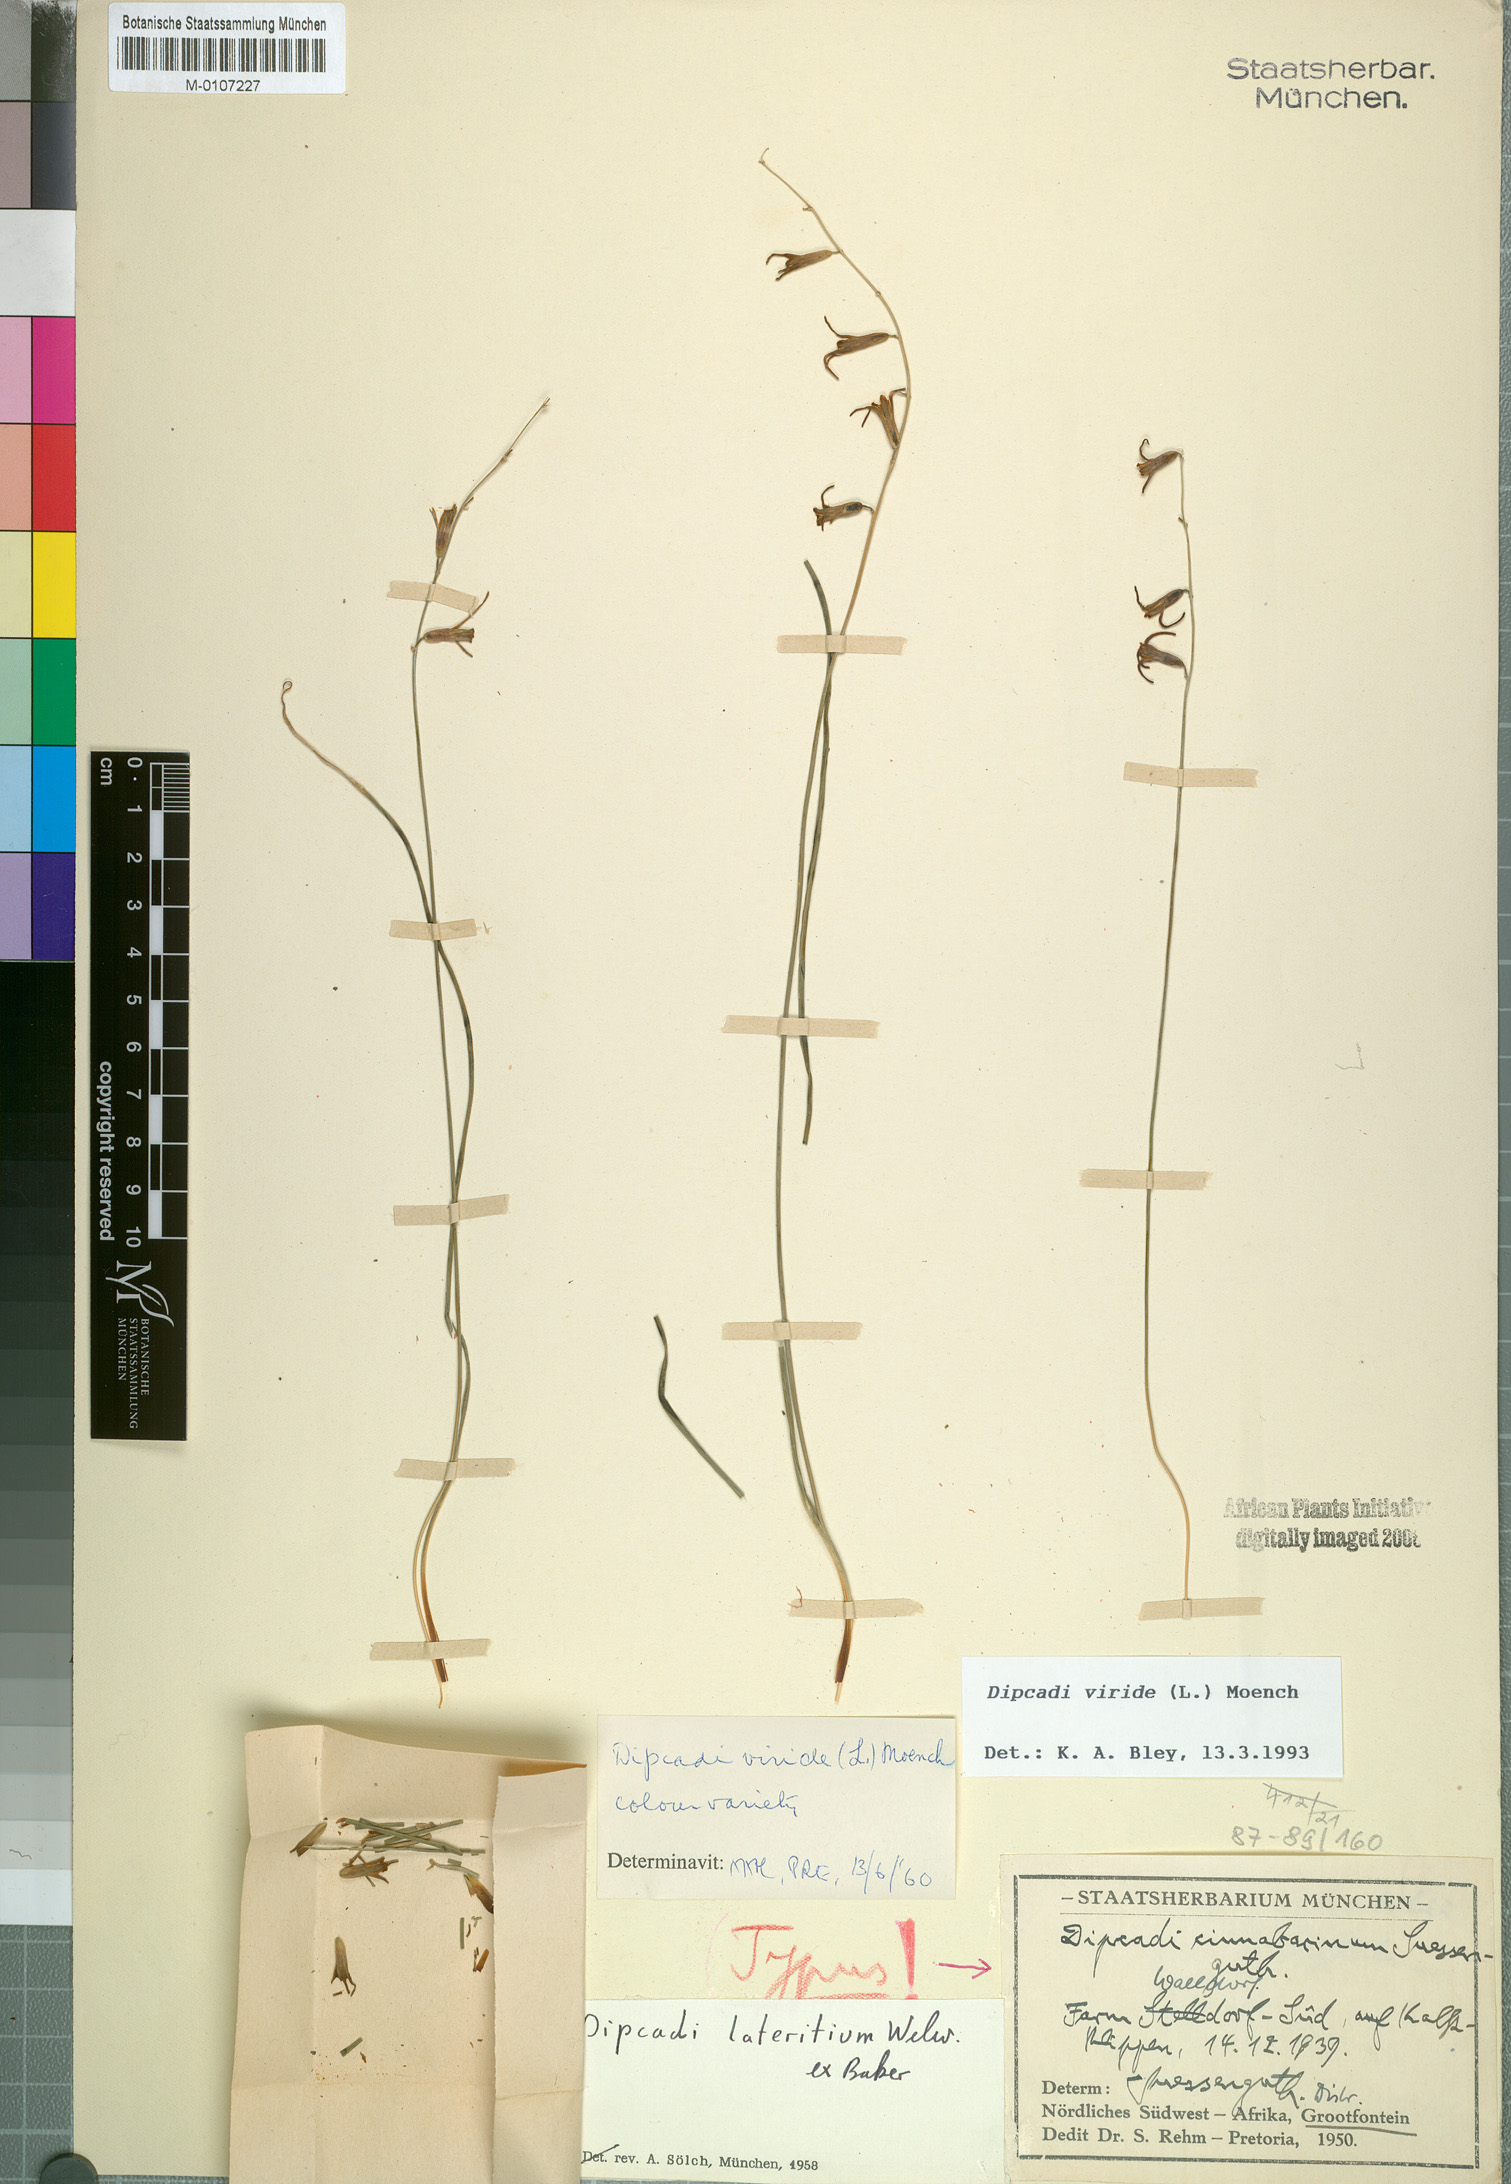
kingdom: Plantae
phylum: Tracheophyta
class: Liliopsida
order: Asparagales
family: Asparagaceae
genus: Dipcadi
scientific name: Dipcadi viride
